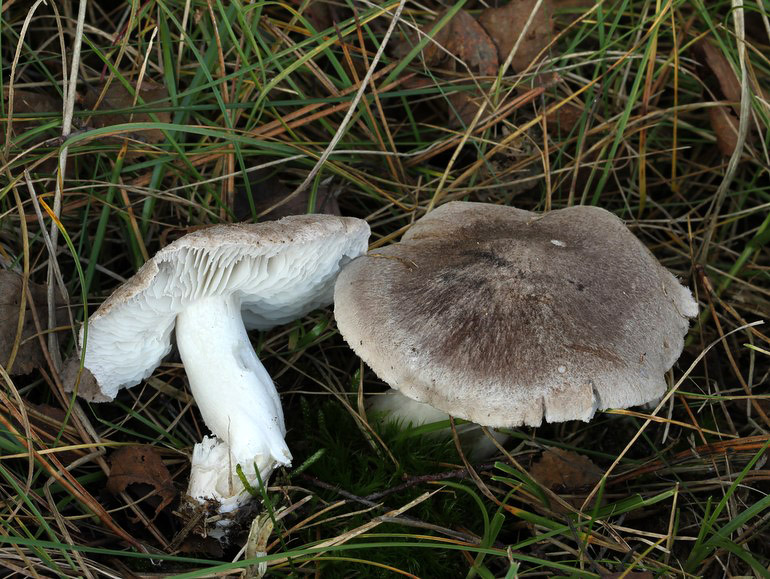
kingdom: Fungi
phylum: Basidiomycota
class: Agaricomycetes
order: Agaricales
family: Tricholomataceae
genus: Tricholoma
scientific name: Tricholoma terreum
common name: jordfarvet ridderhat
